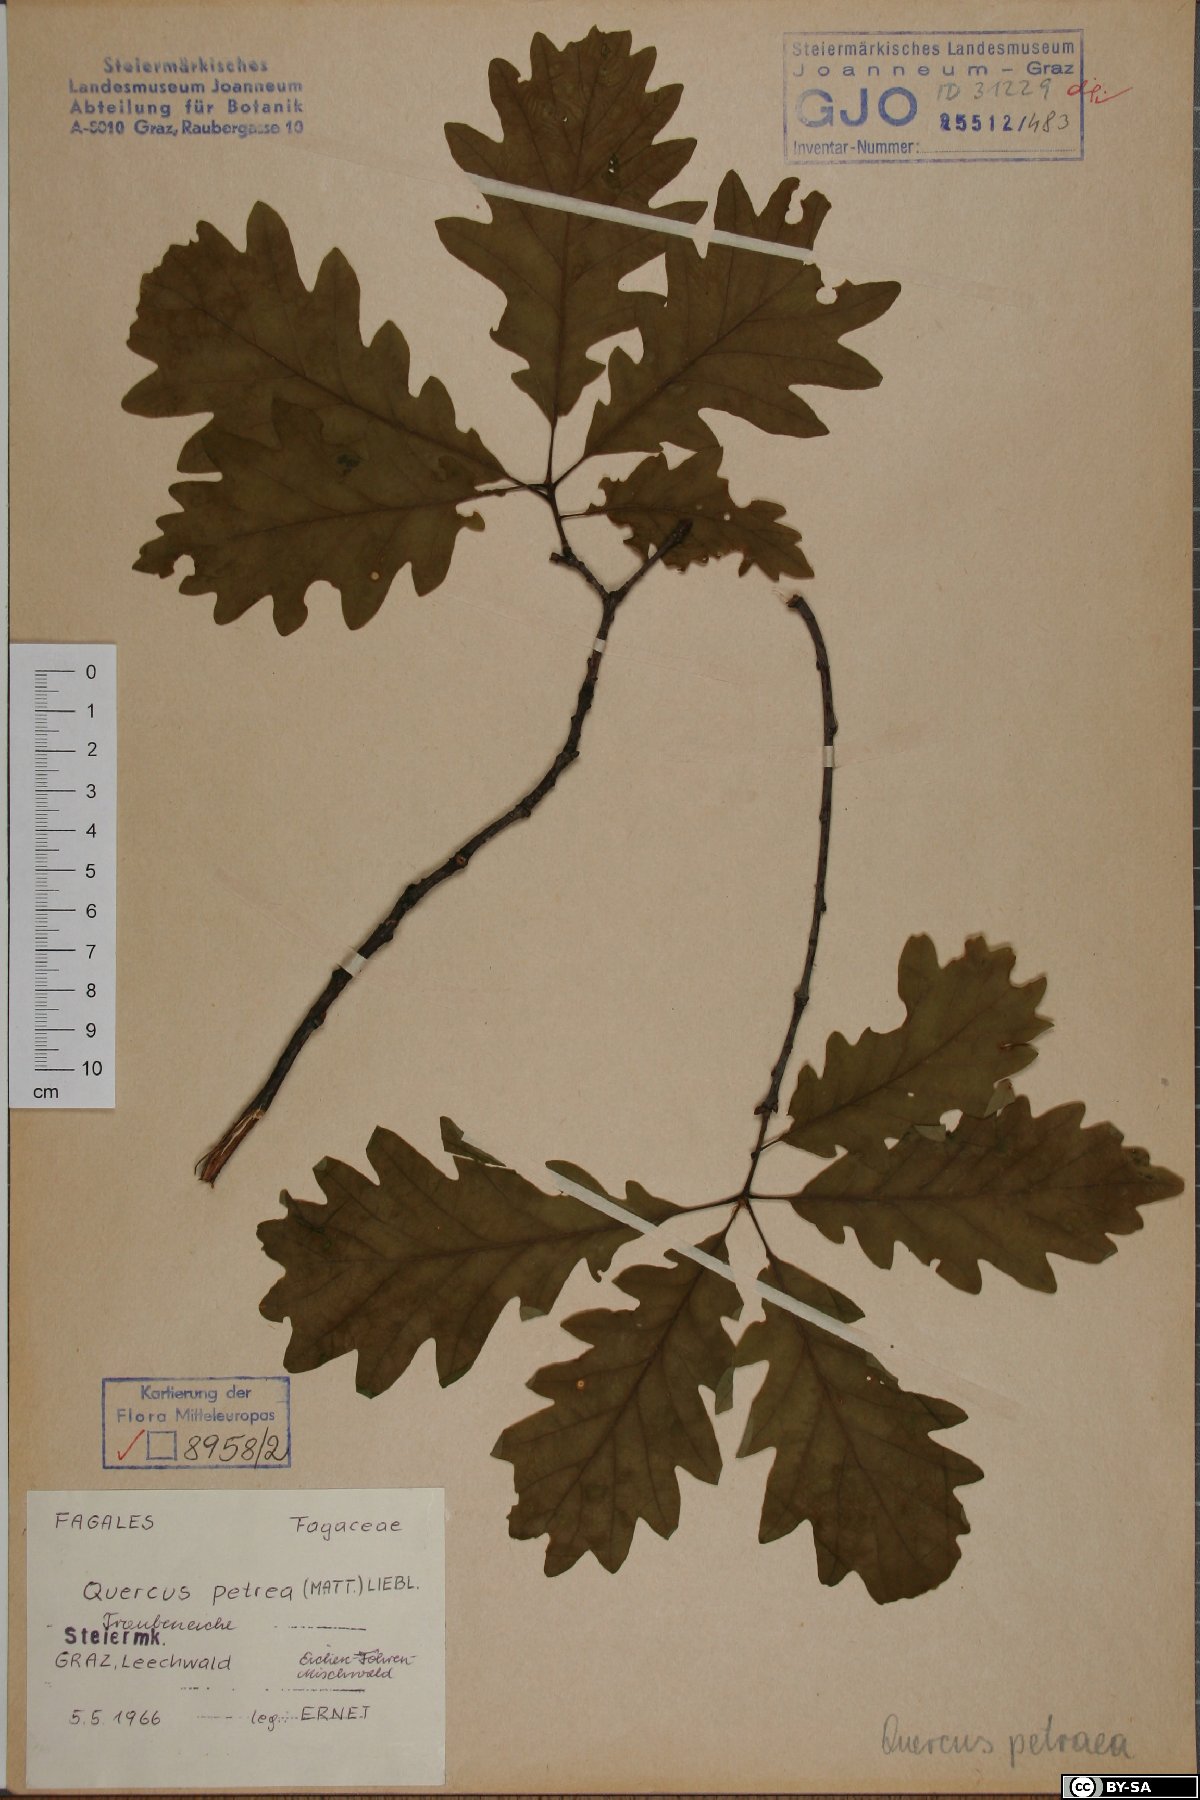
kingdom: Plantae
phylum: Tracheophyta
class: Magnoliopsida
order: Fagales
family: Fagaceae
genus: Quercus
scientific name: Quercus petraea
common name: Sessile oak
